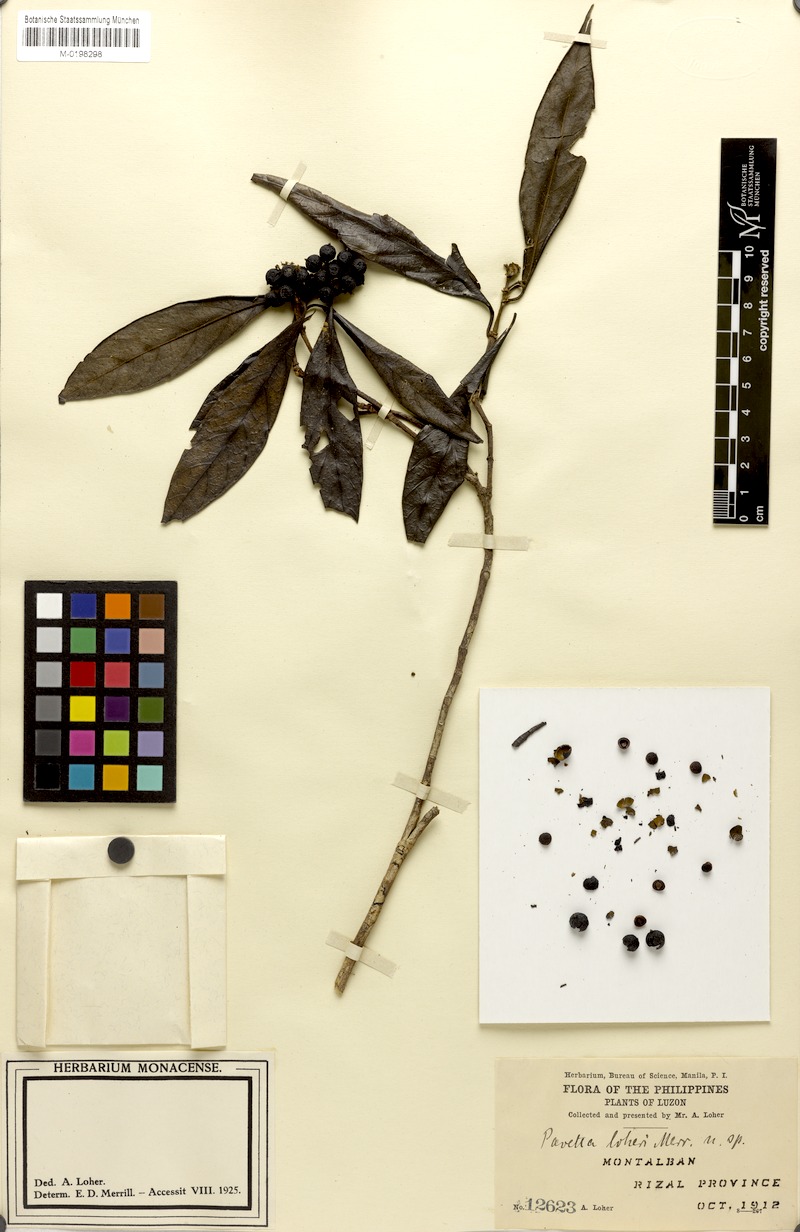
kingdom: Plantae
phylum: Tracheophyta
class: Magnoliopsida
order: Gentianales
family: Rubiaceae
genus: Tarenna
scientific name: Tarenna loheri
